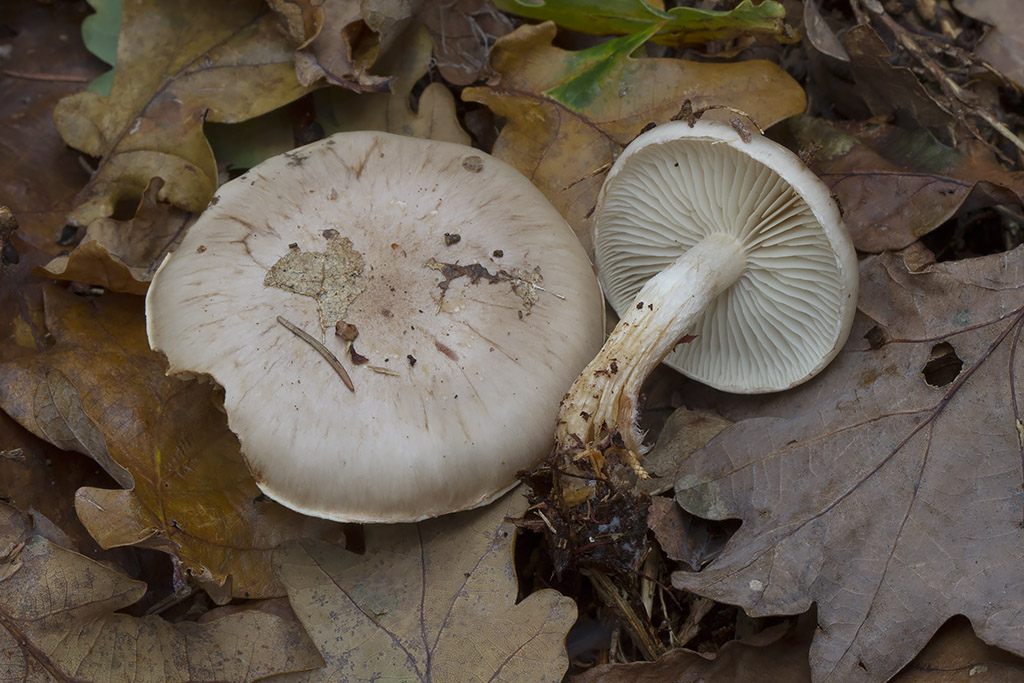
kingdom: Fungi
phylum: Basidiomycota
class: Agaricomycetes
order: Agaricales
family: Strophariaceae
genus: Pholiota
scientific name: Pholiota lenta
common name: løv-skælhat
